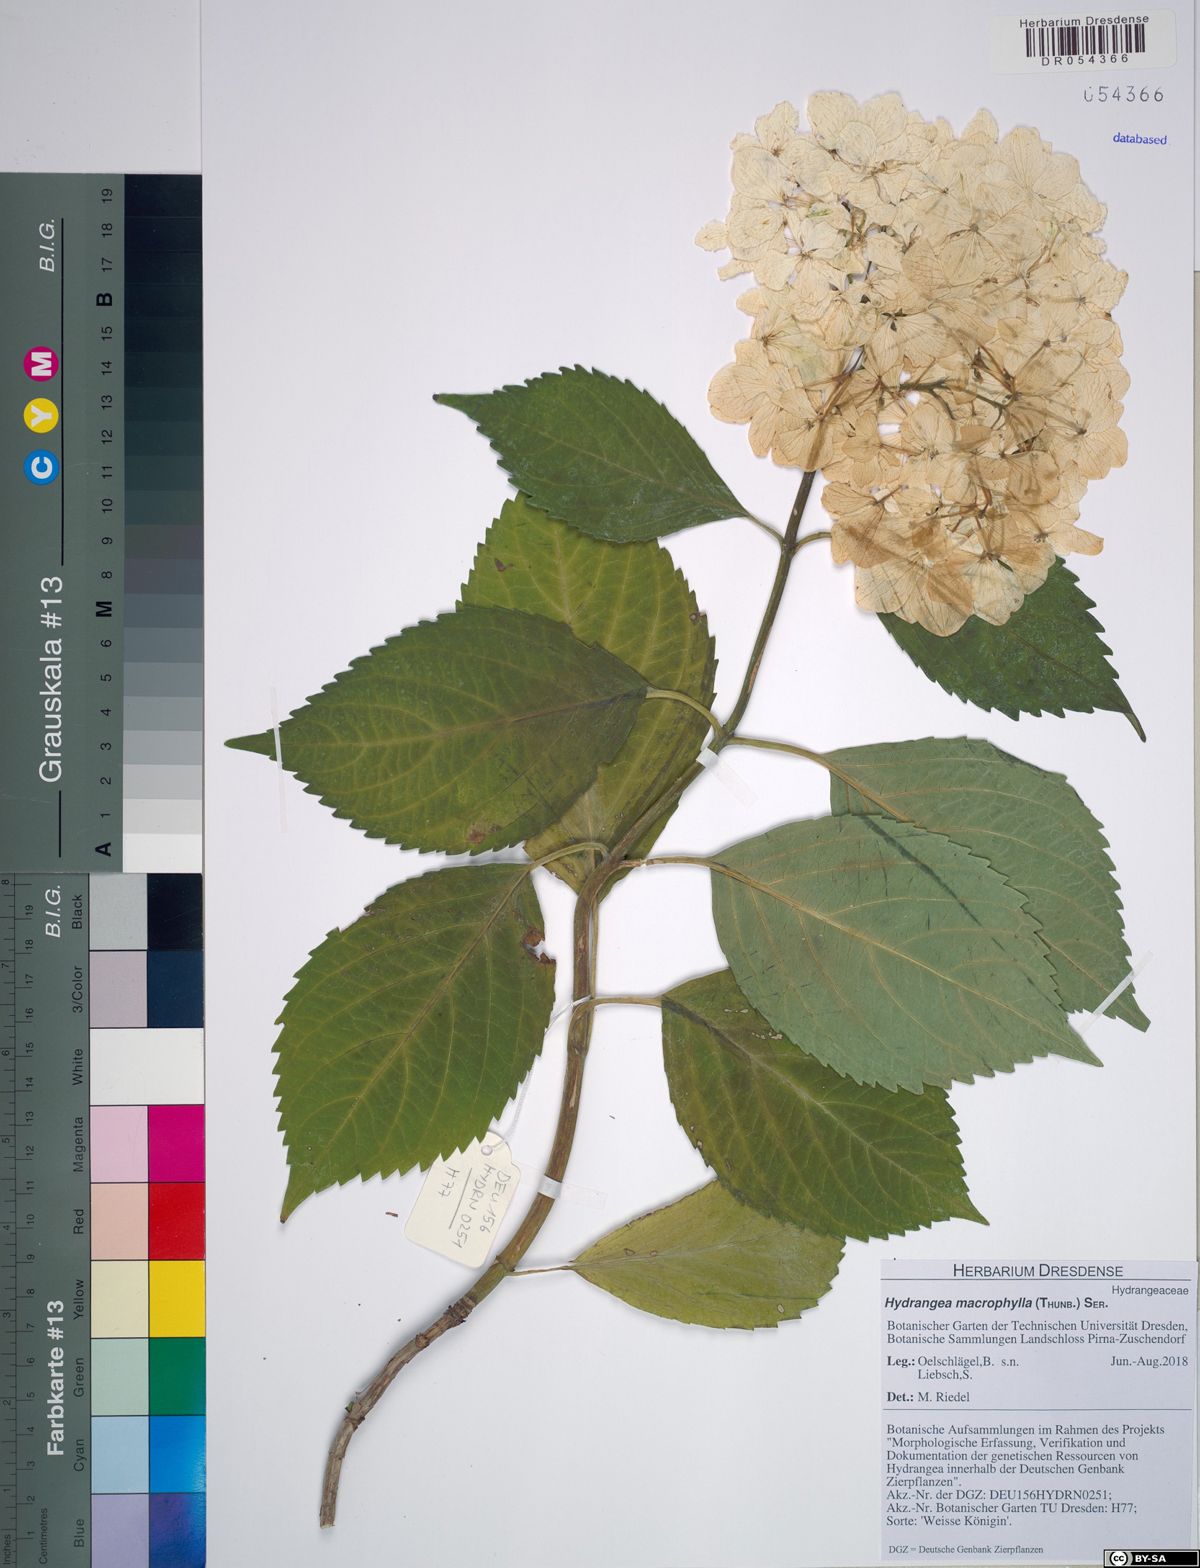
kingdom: Plantae
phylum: Tracheophyta
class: Magnoliopsida
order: Cornales
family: Hydrangeaceae
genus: Hydrangea
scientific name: Hydrangea macrophylla
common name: Hydrangea
